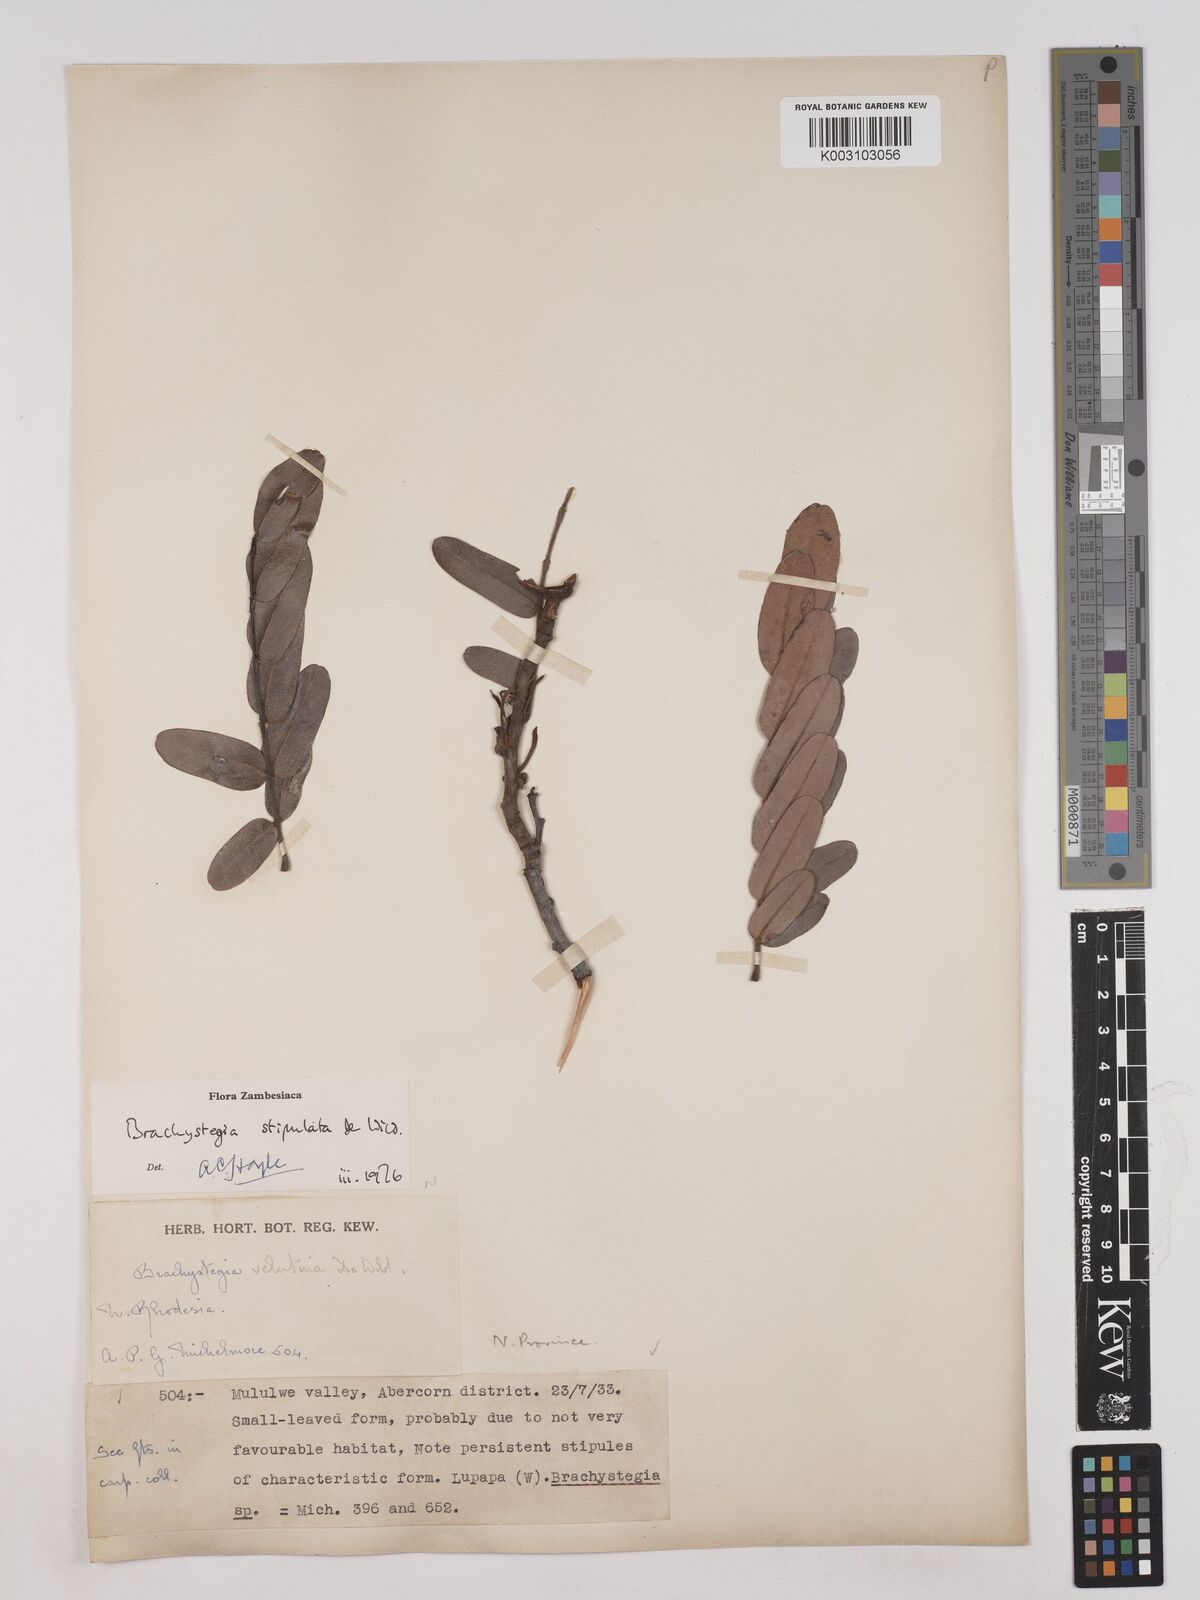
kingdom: Plantae
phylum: Tracheophyta
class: Magnoliopsida
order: Fabales
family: Fabaceae
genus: Brachystegia
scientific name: Brachystegia stipulata
